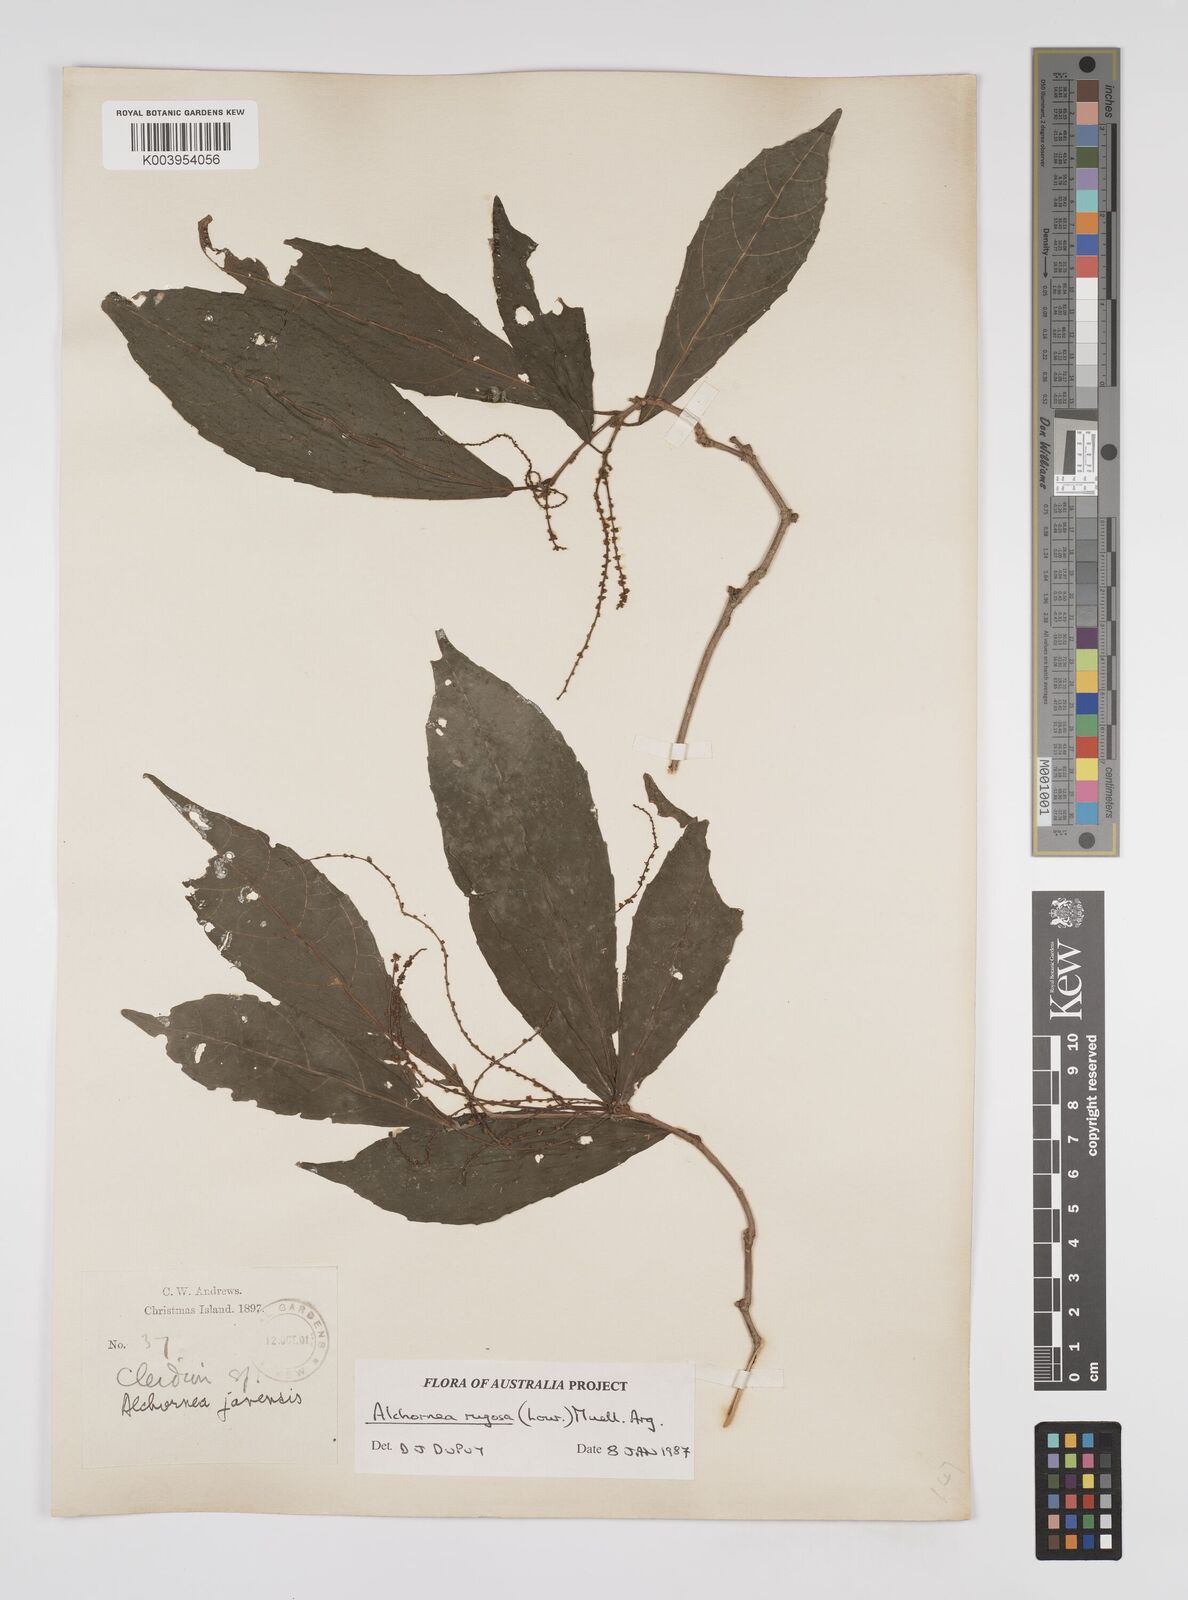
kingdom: Plantae
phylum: Tracheophyta
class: Magnoliopsida
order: Malpighiales
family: Euphorbiaceae
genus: Alchornea
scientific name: Alchornea rugosa
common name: Alchorntree
